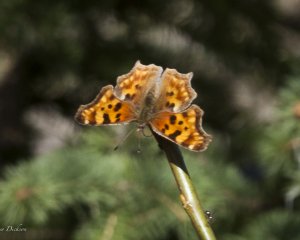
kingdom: Animalia
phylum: Arthropoda
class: Insecta
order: Lepidoptera
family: Nymphalidae
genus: Polygonia
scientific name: Polygonia satyrus
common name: Satyr Comma
